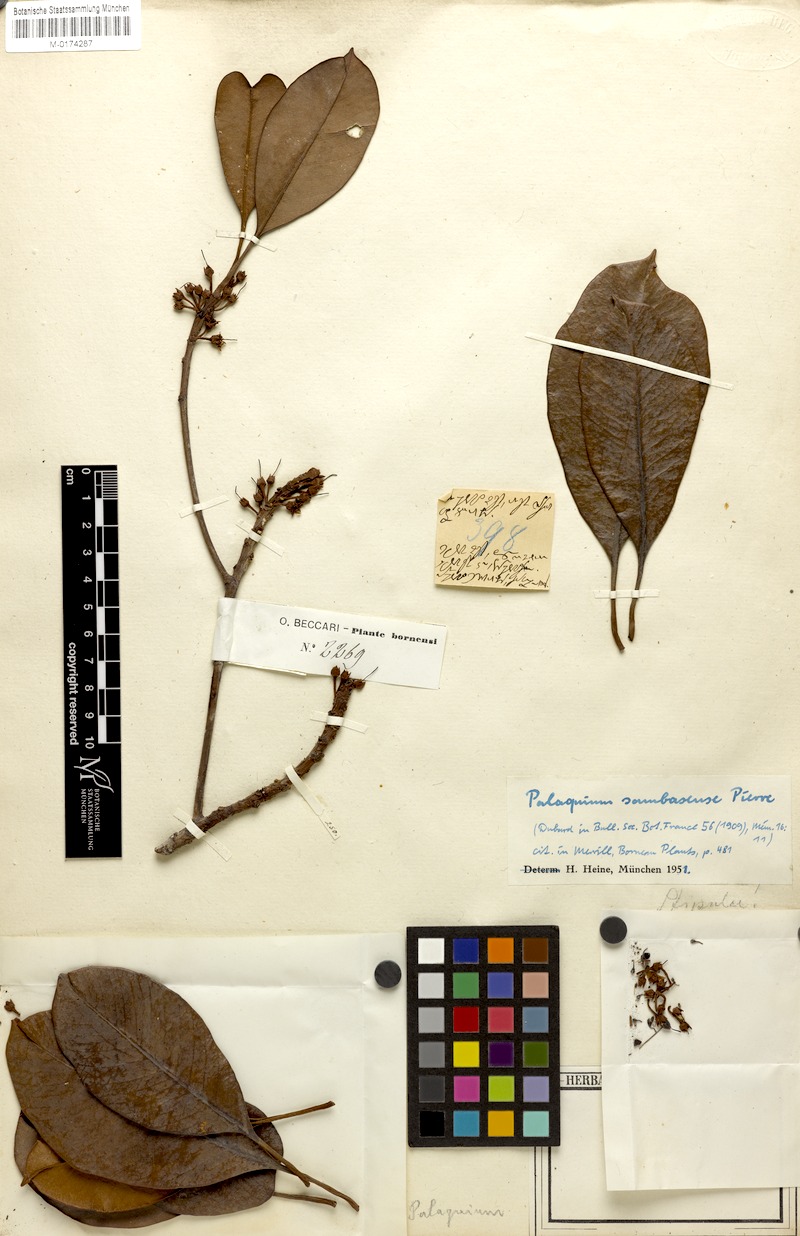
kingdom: Plantae
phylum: Tracheophyta
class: Magnoliopsida
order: Ericales
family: Sapotaceae
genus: Palaquium
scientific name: Palaquium gutta
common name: Gutta-percha-tree
